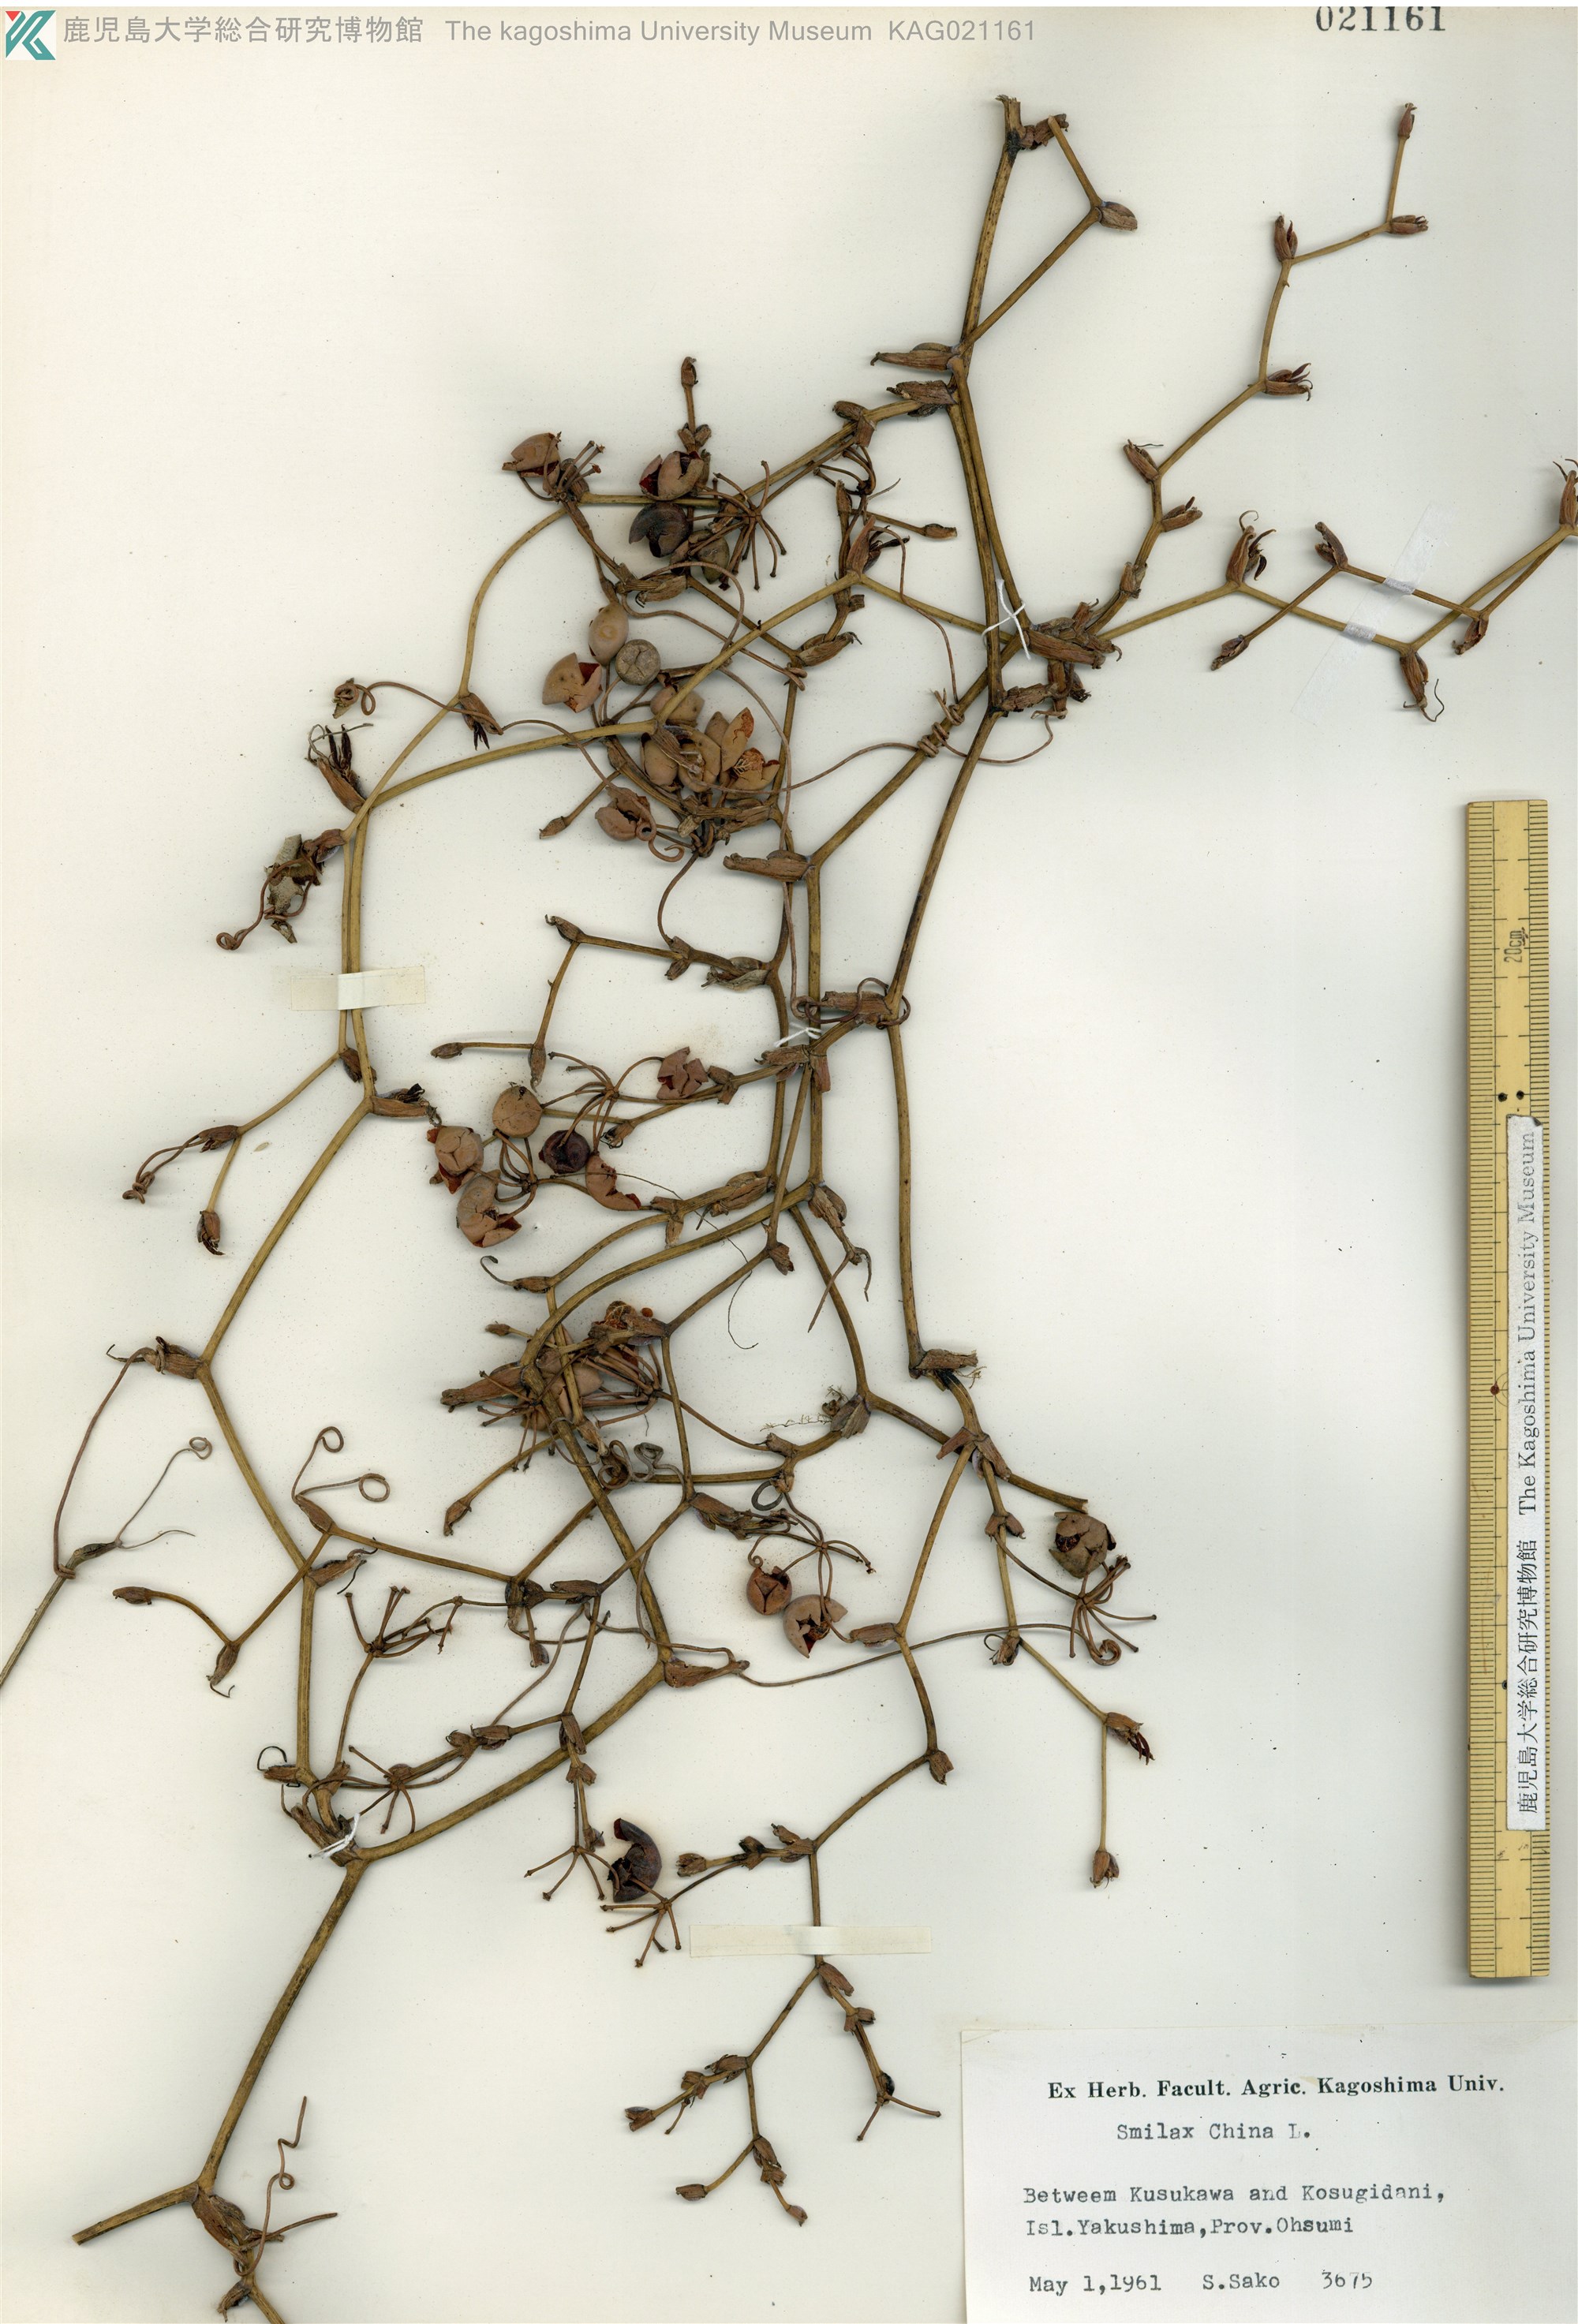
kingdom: Plantae
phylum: Tracheophyta
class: Liliopsida
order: Liliales
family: Smilacaceae
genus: Smilax
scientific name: Smilax china
